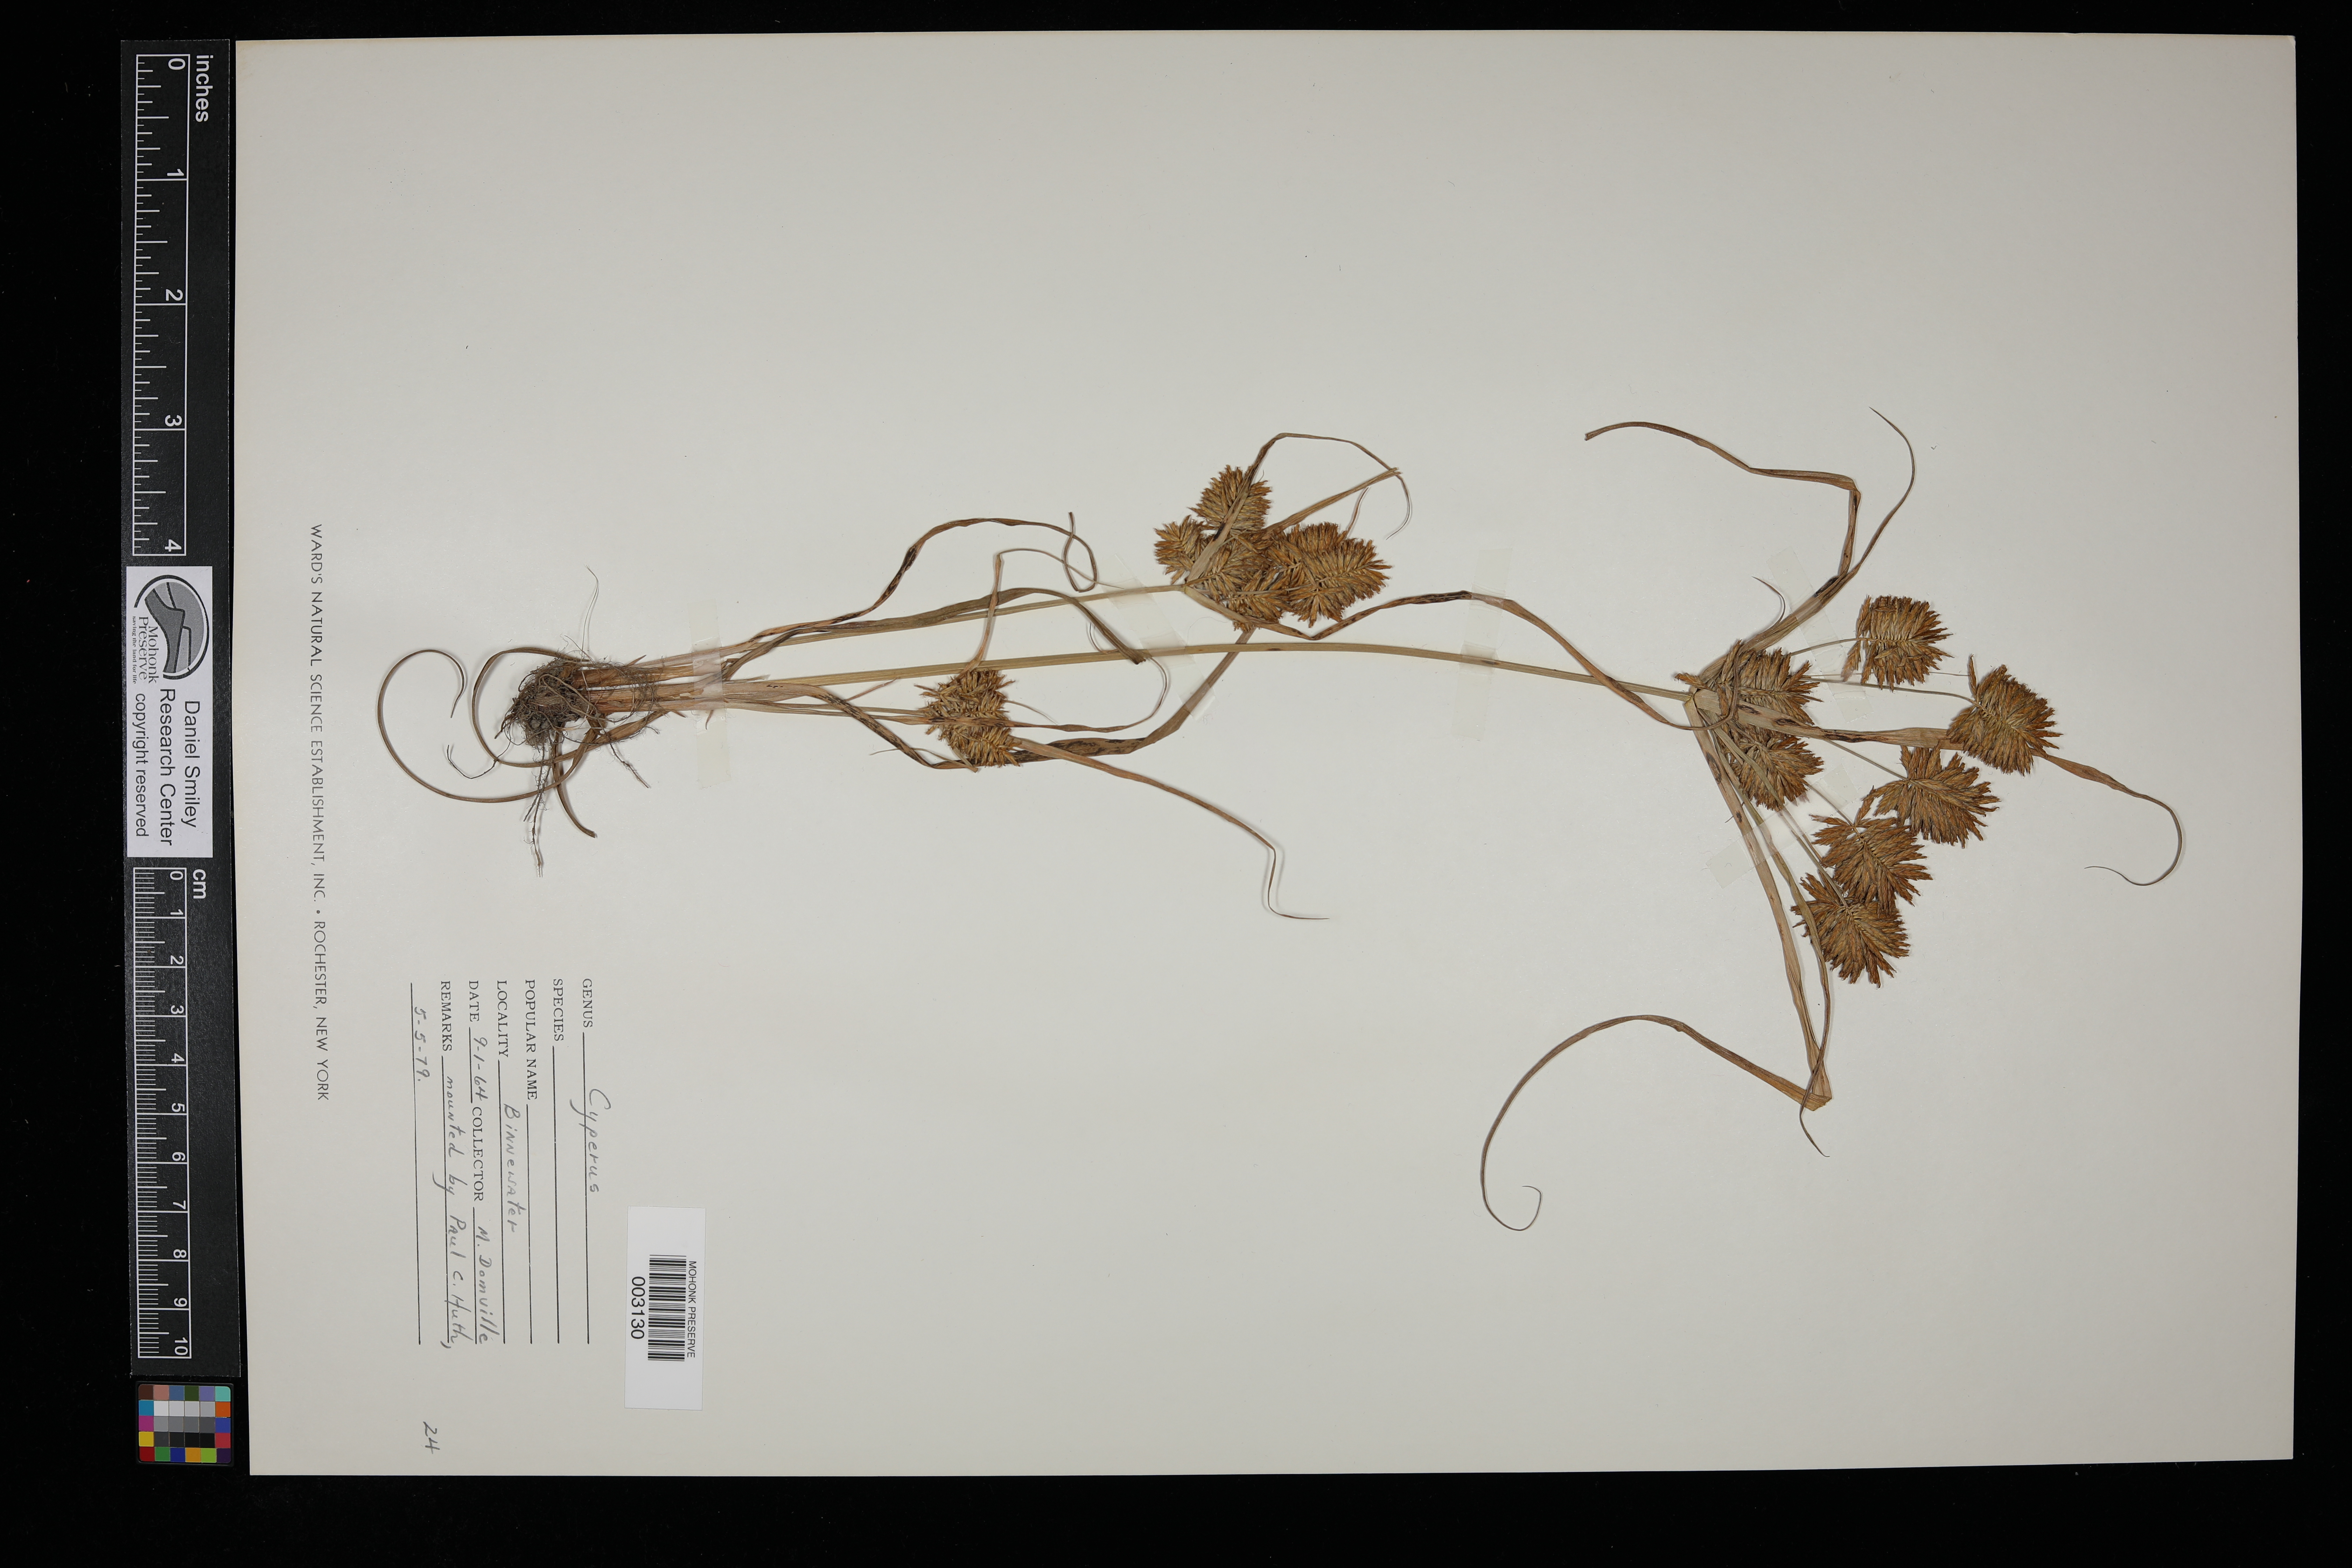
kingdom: Plantae
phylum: Tracheophyta
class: Liliopsida
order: Poales
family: Cyperaceae
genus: Cyperus
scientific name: Cyperus
